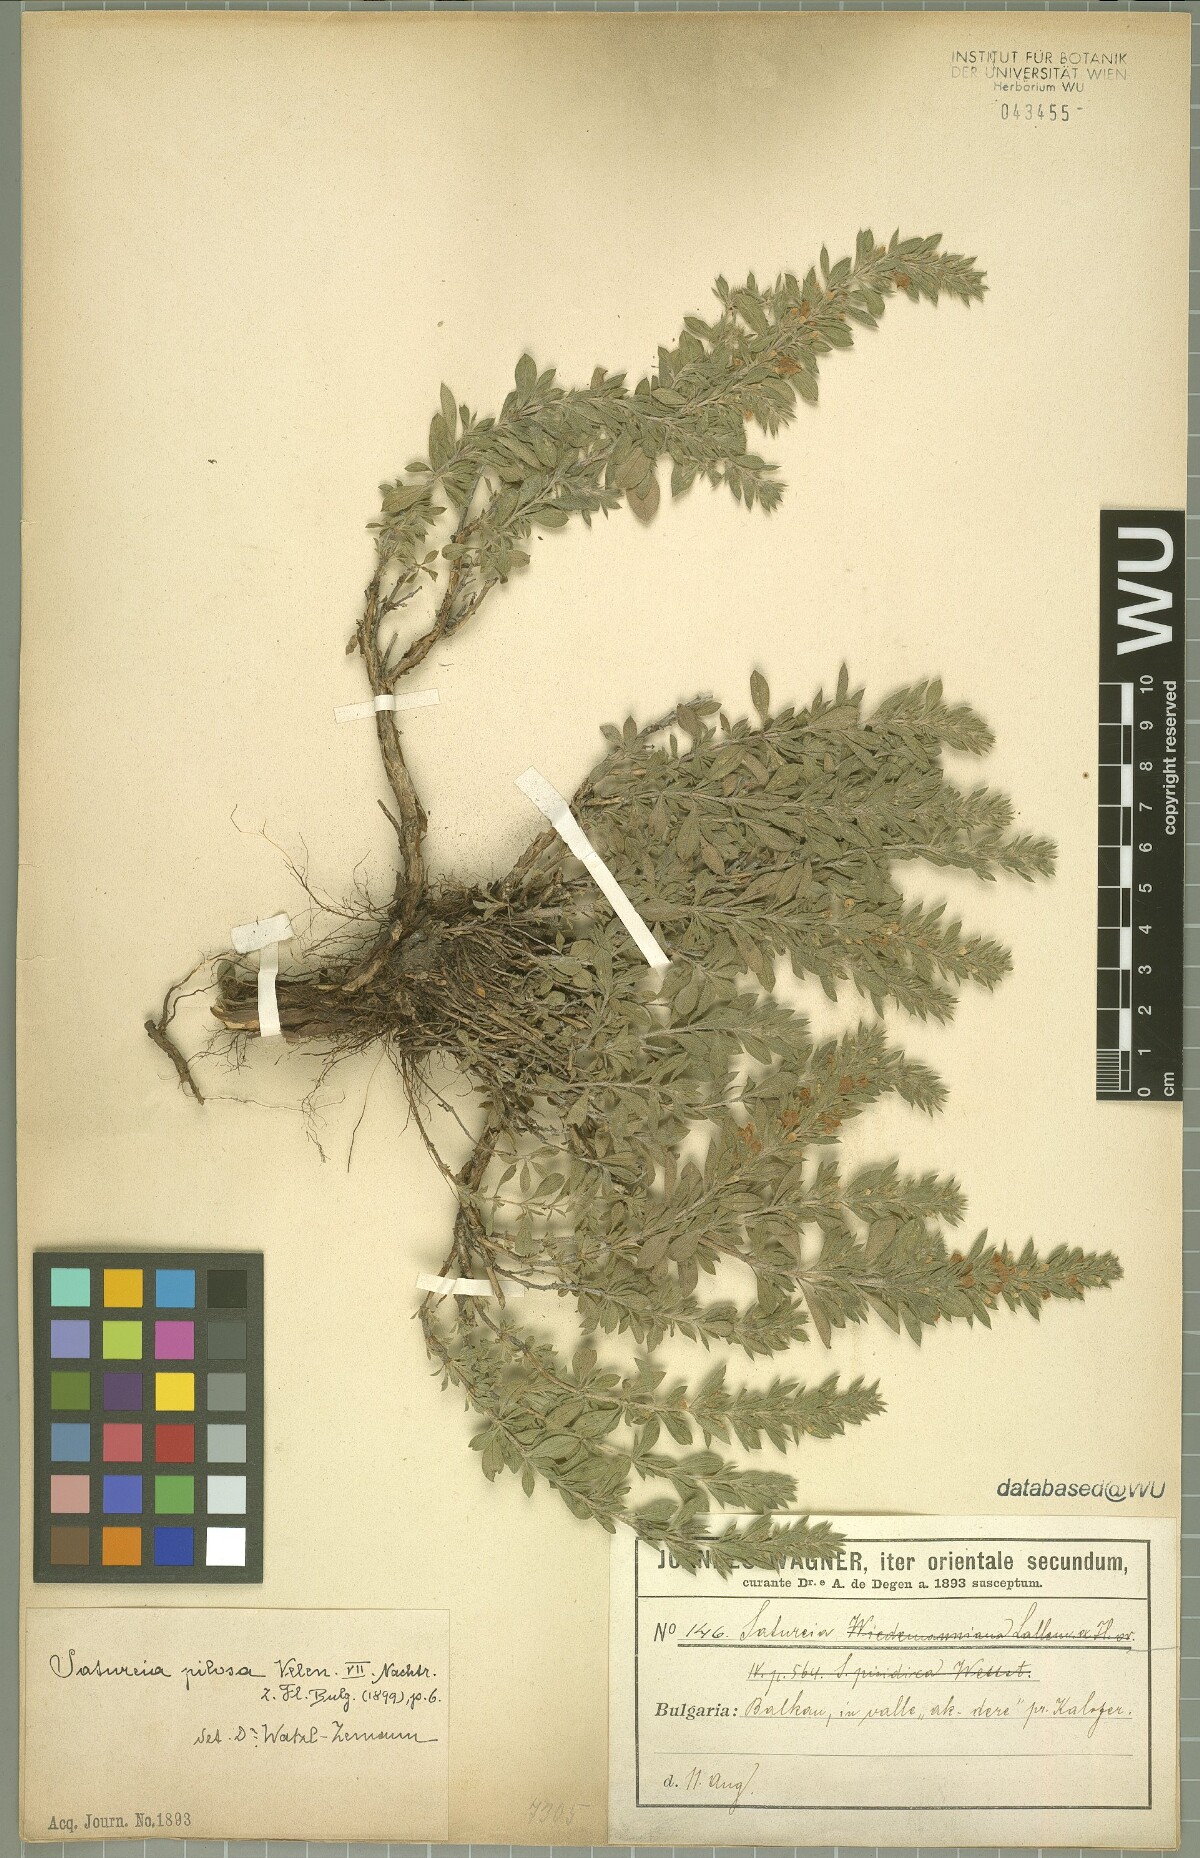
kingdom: Plantae
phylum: Tracheophyta
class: Magnoliopsida
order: Lamiales
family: Lamiaceae
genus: Satureja
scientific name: Satureja pilosa
